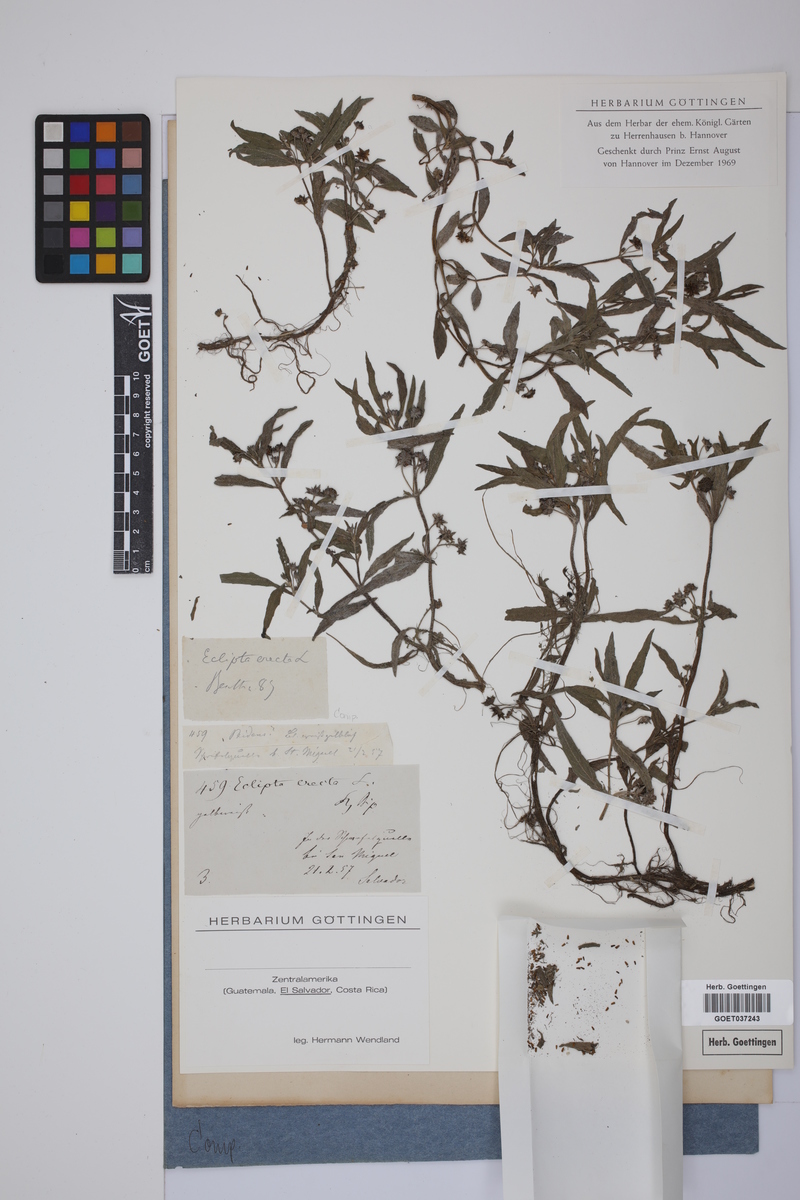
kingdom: Plantae
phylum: Tracheophyta
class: Magnoliopsida
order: Asterales
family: Asteraceae
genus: Eclipta
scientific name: Eclipta alba
